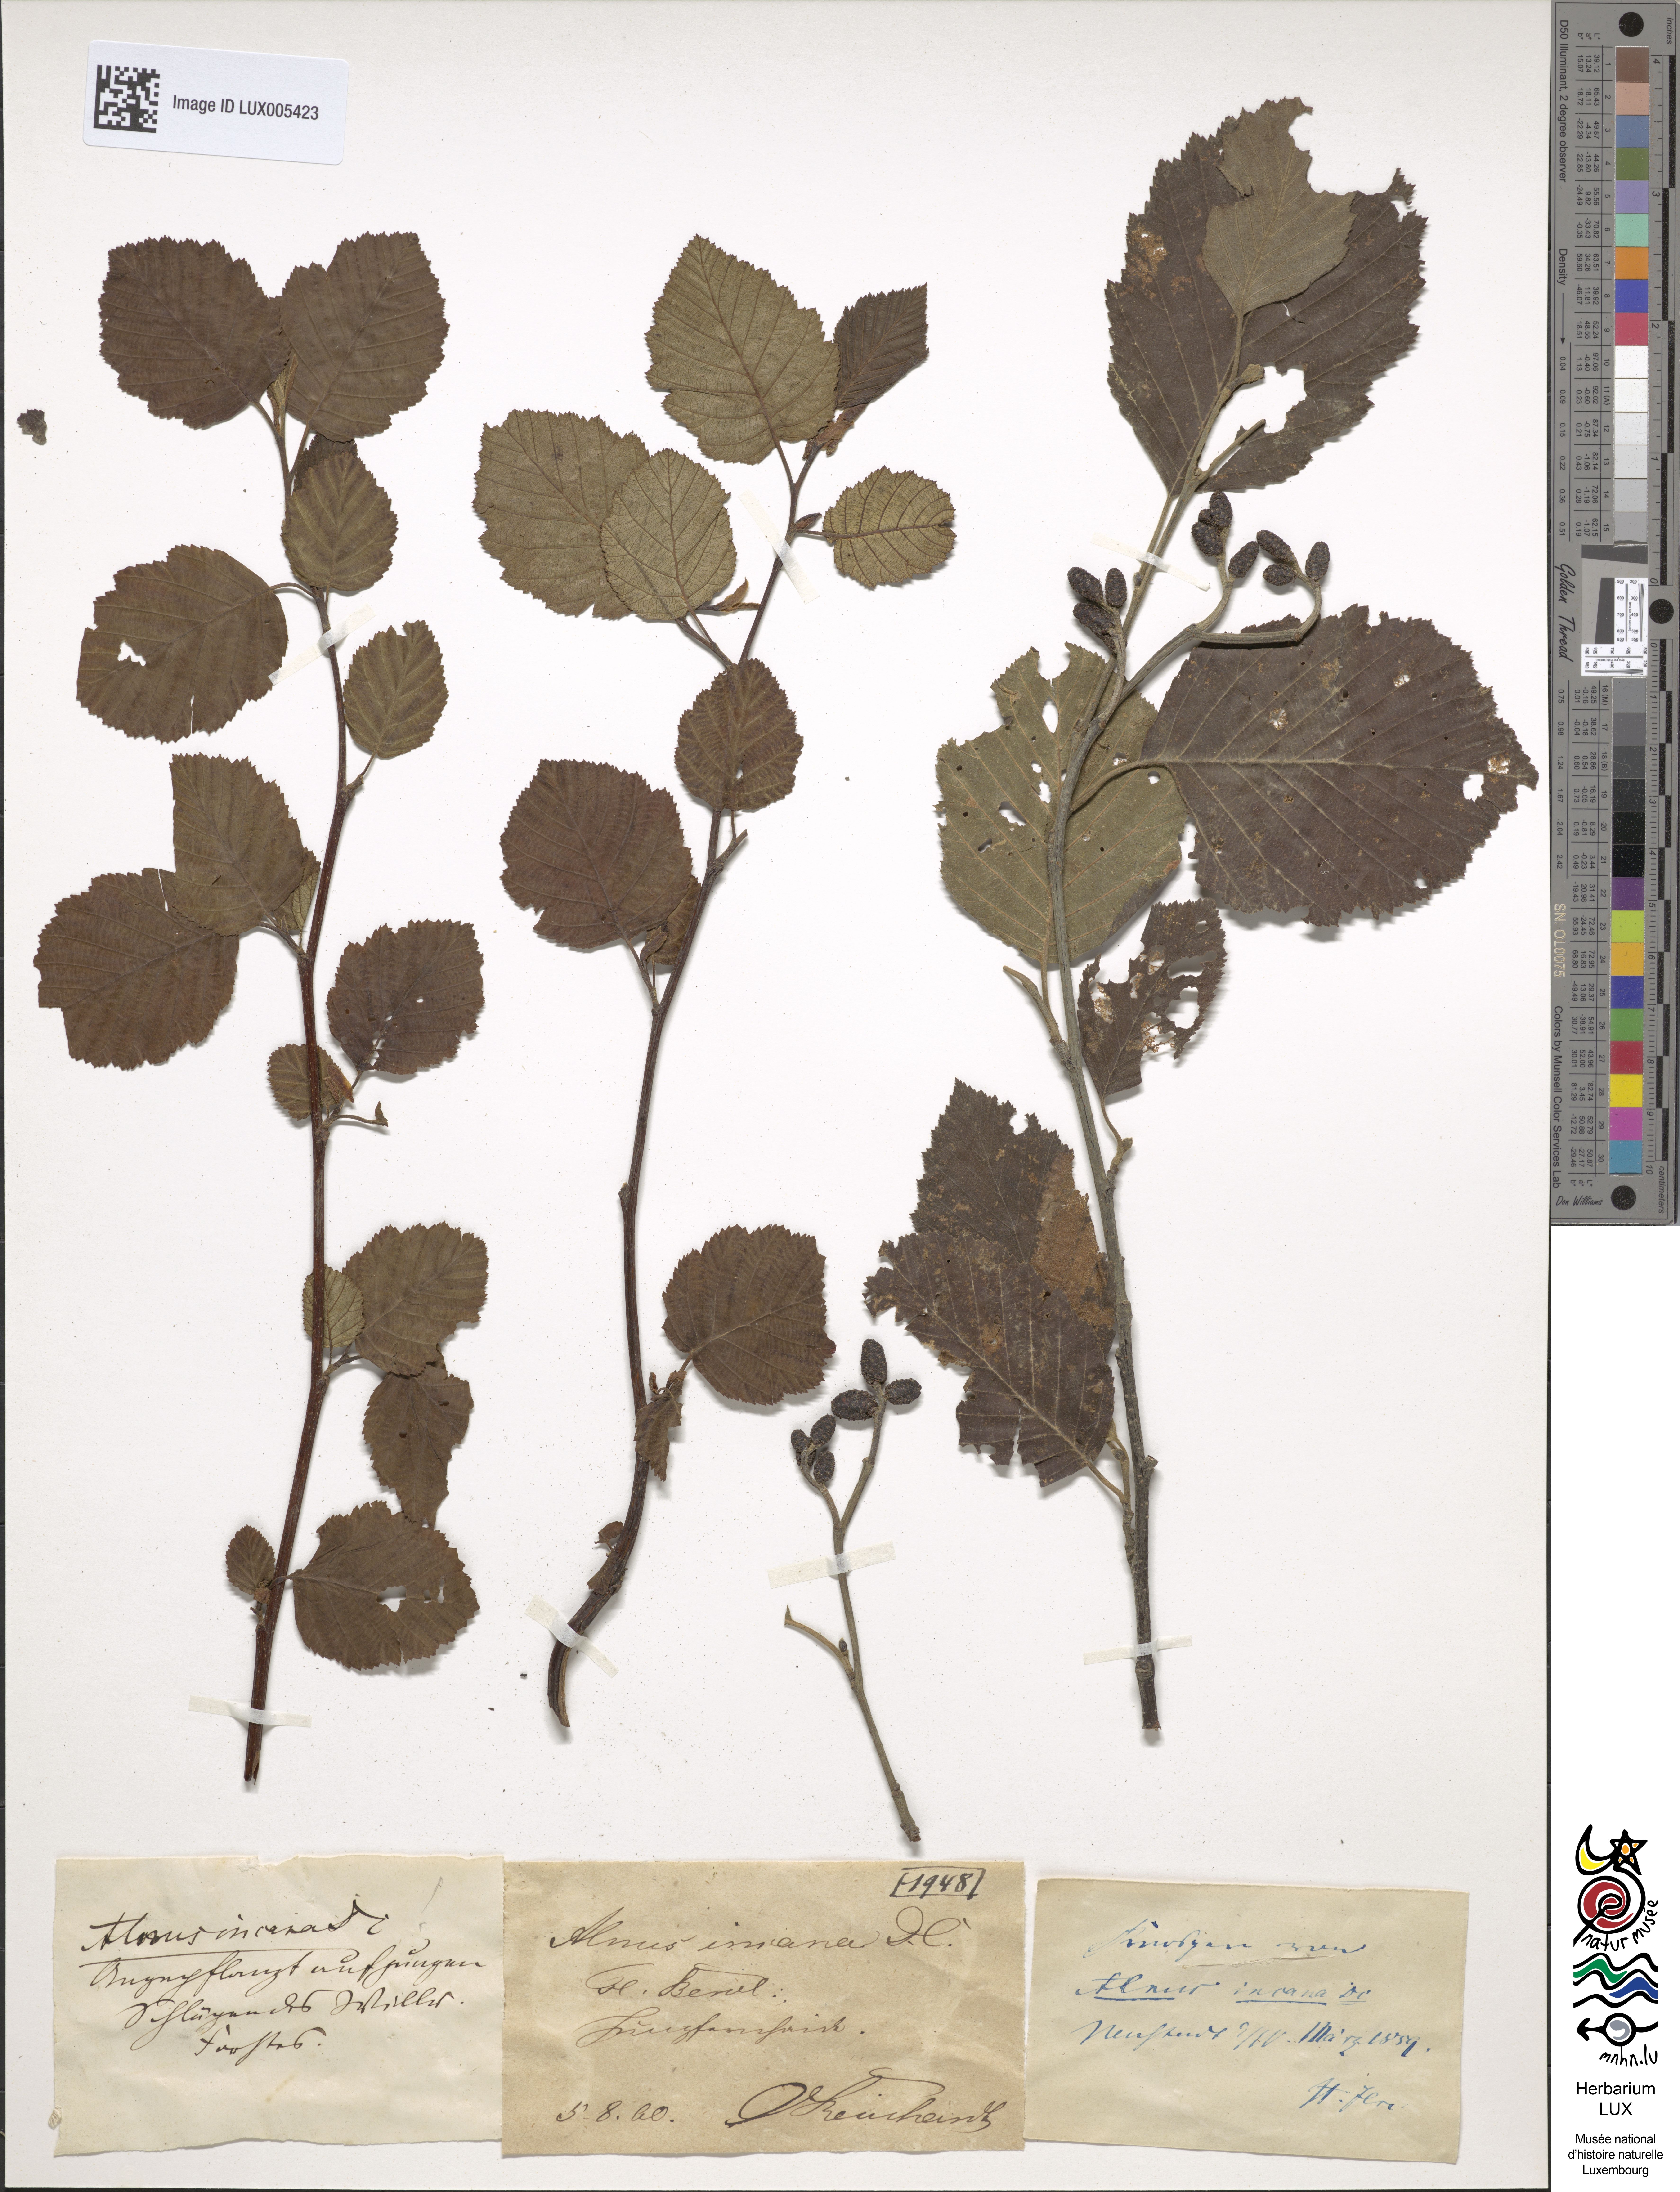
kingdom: Plantae
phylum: Tracheophyta
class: Magnoliopsida
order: Fagales
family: Betulaceae
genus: Alnus
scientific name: Alnus incana
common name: Grey alder
